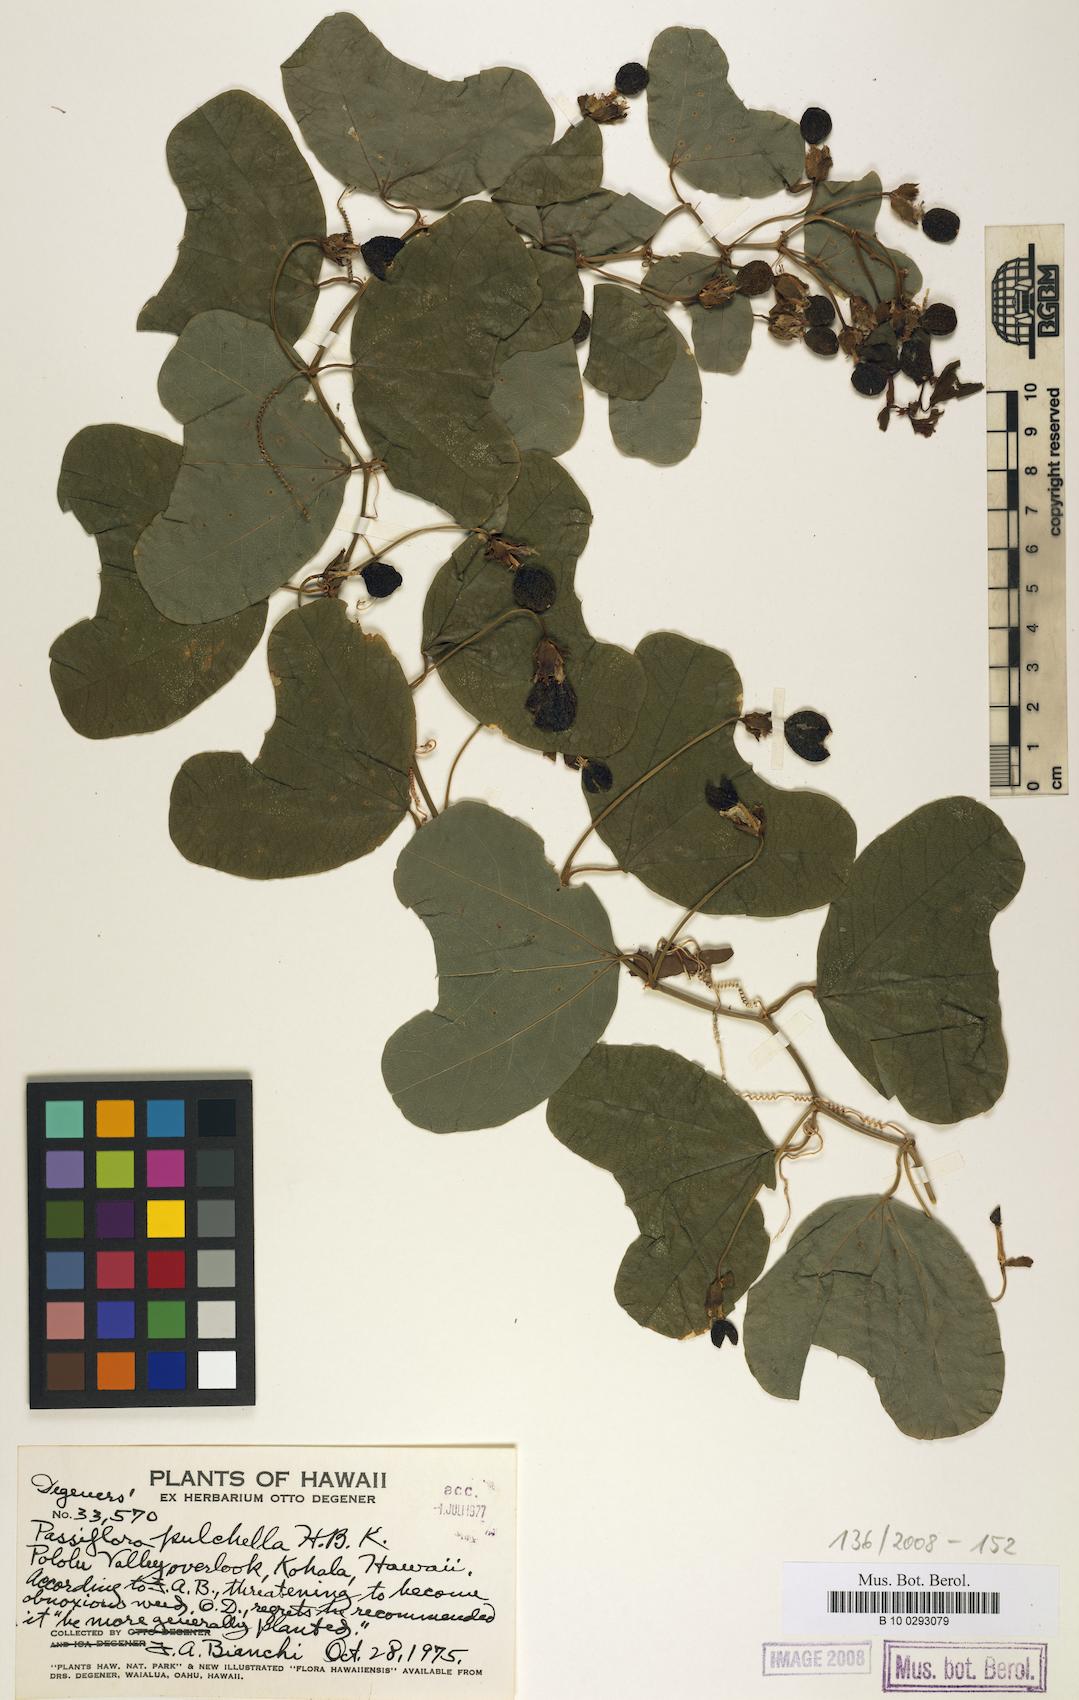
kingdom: Plantae
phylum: Tracheophyta
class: Magnoliopsida
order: Malpighiales
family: Passifloraceae
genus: Passiflora
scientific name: Passiflora bicornis
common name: Wingleaf passionflower
